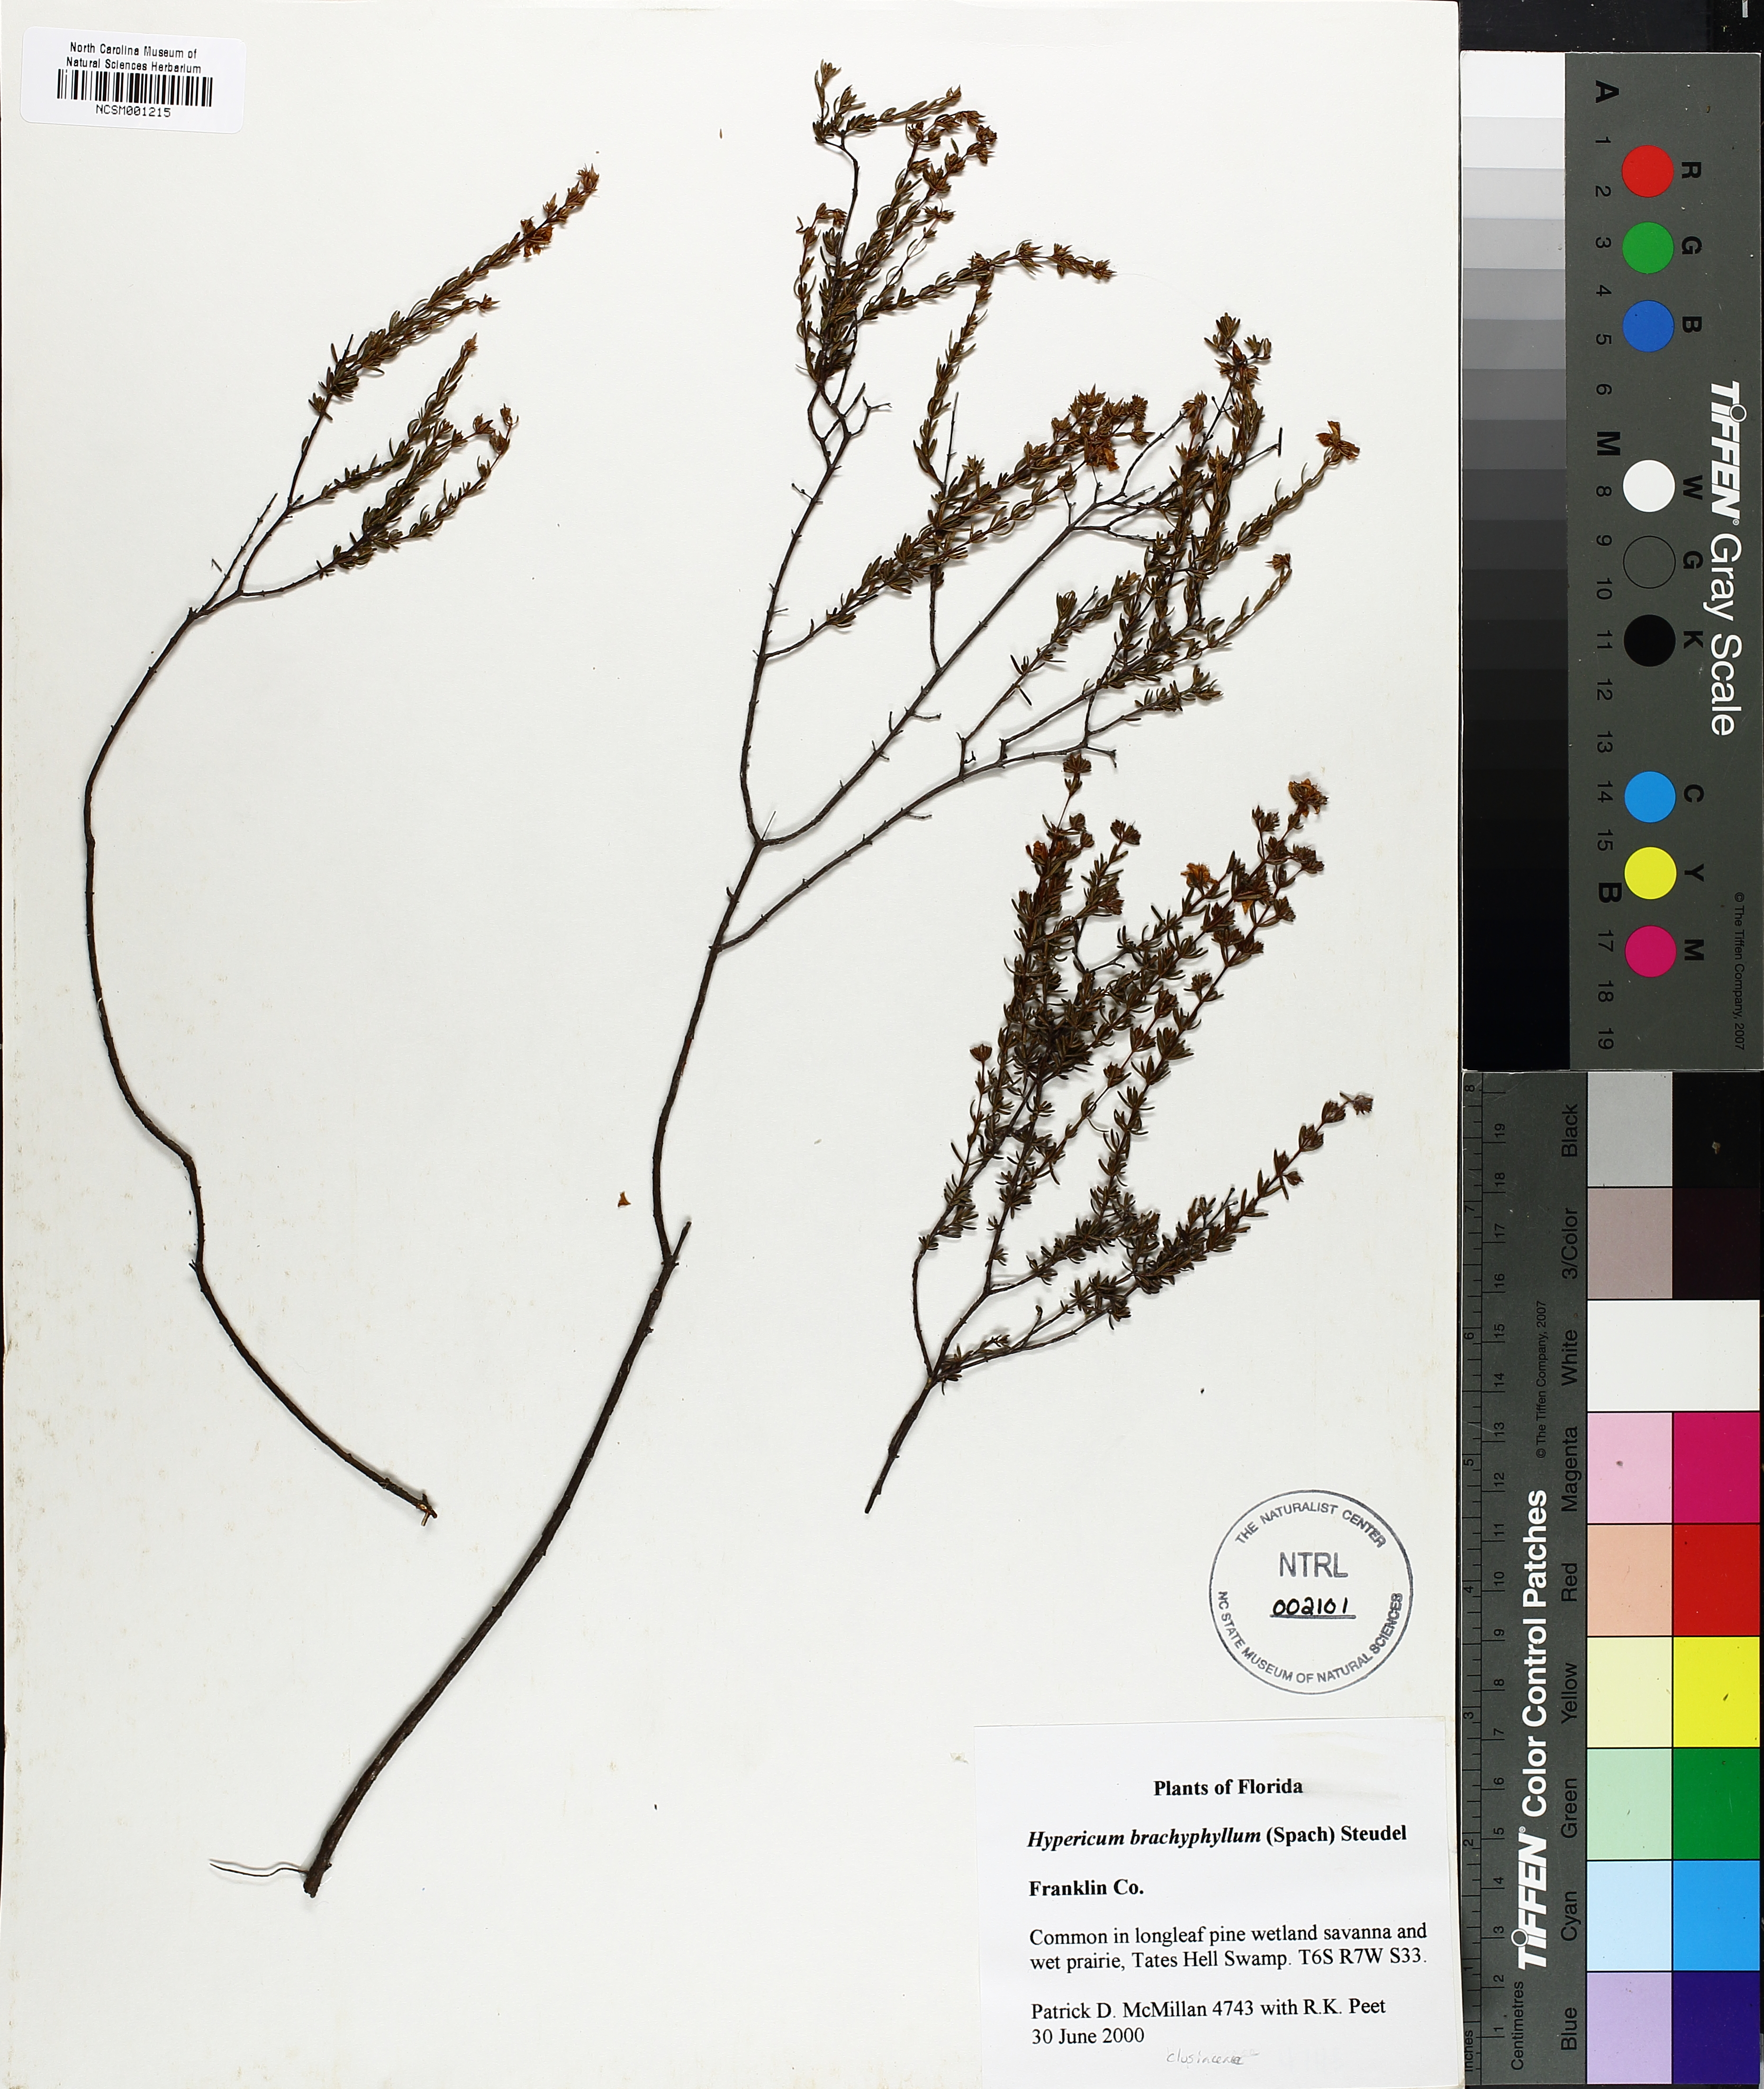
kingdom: Plantae
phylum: Tracheophyta
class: Magnoliopsida
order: Malpighiales
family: Hypericaceae
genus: Hypericum
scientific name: Hypericum brachyphyllum
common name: Coastal plain st. john's-wort
